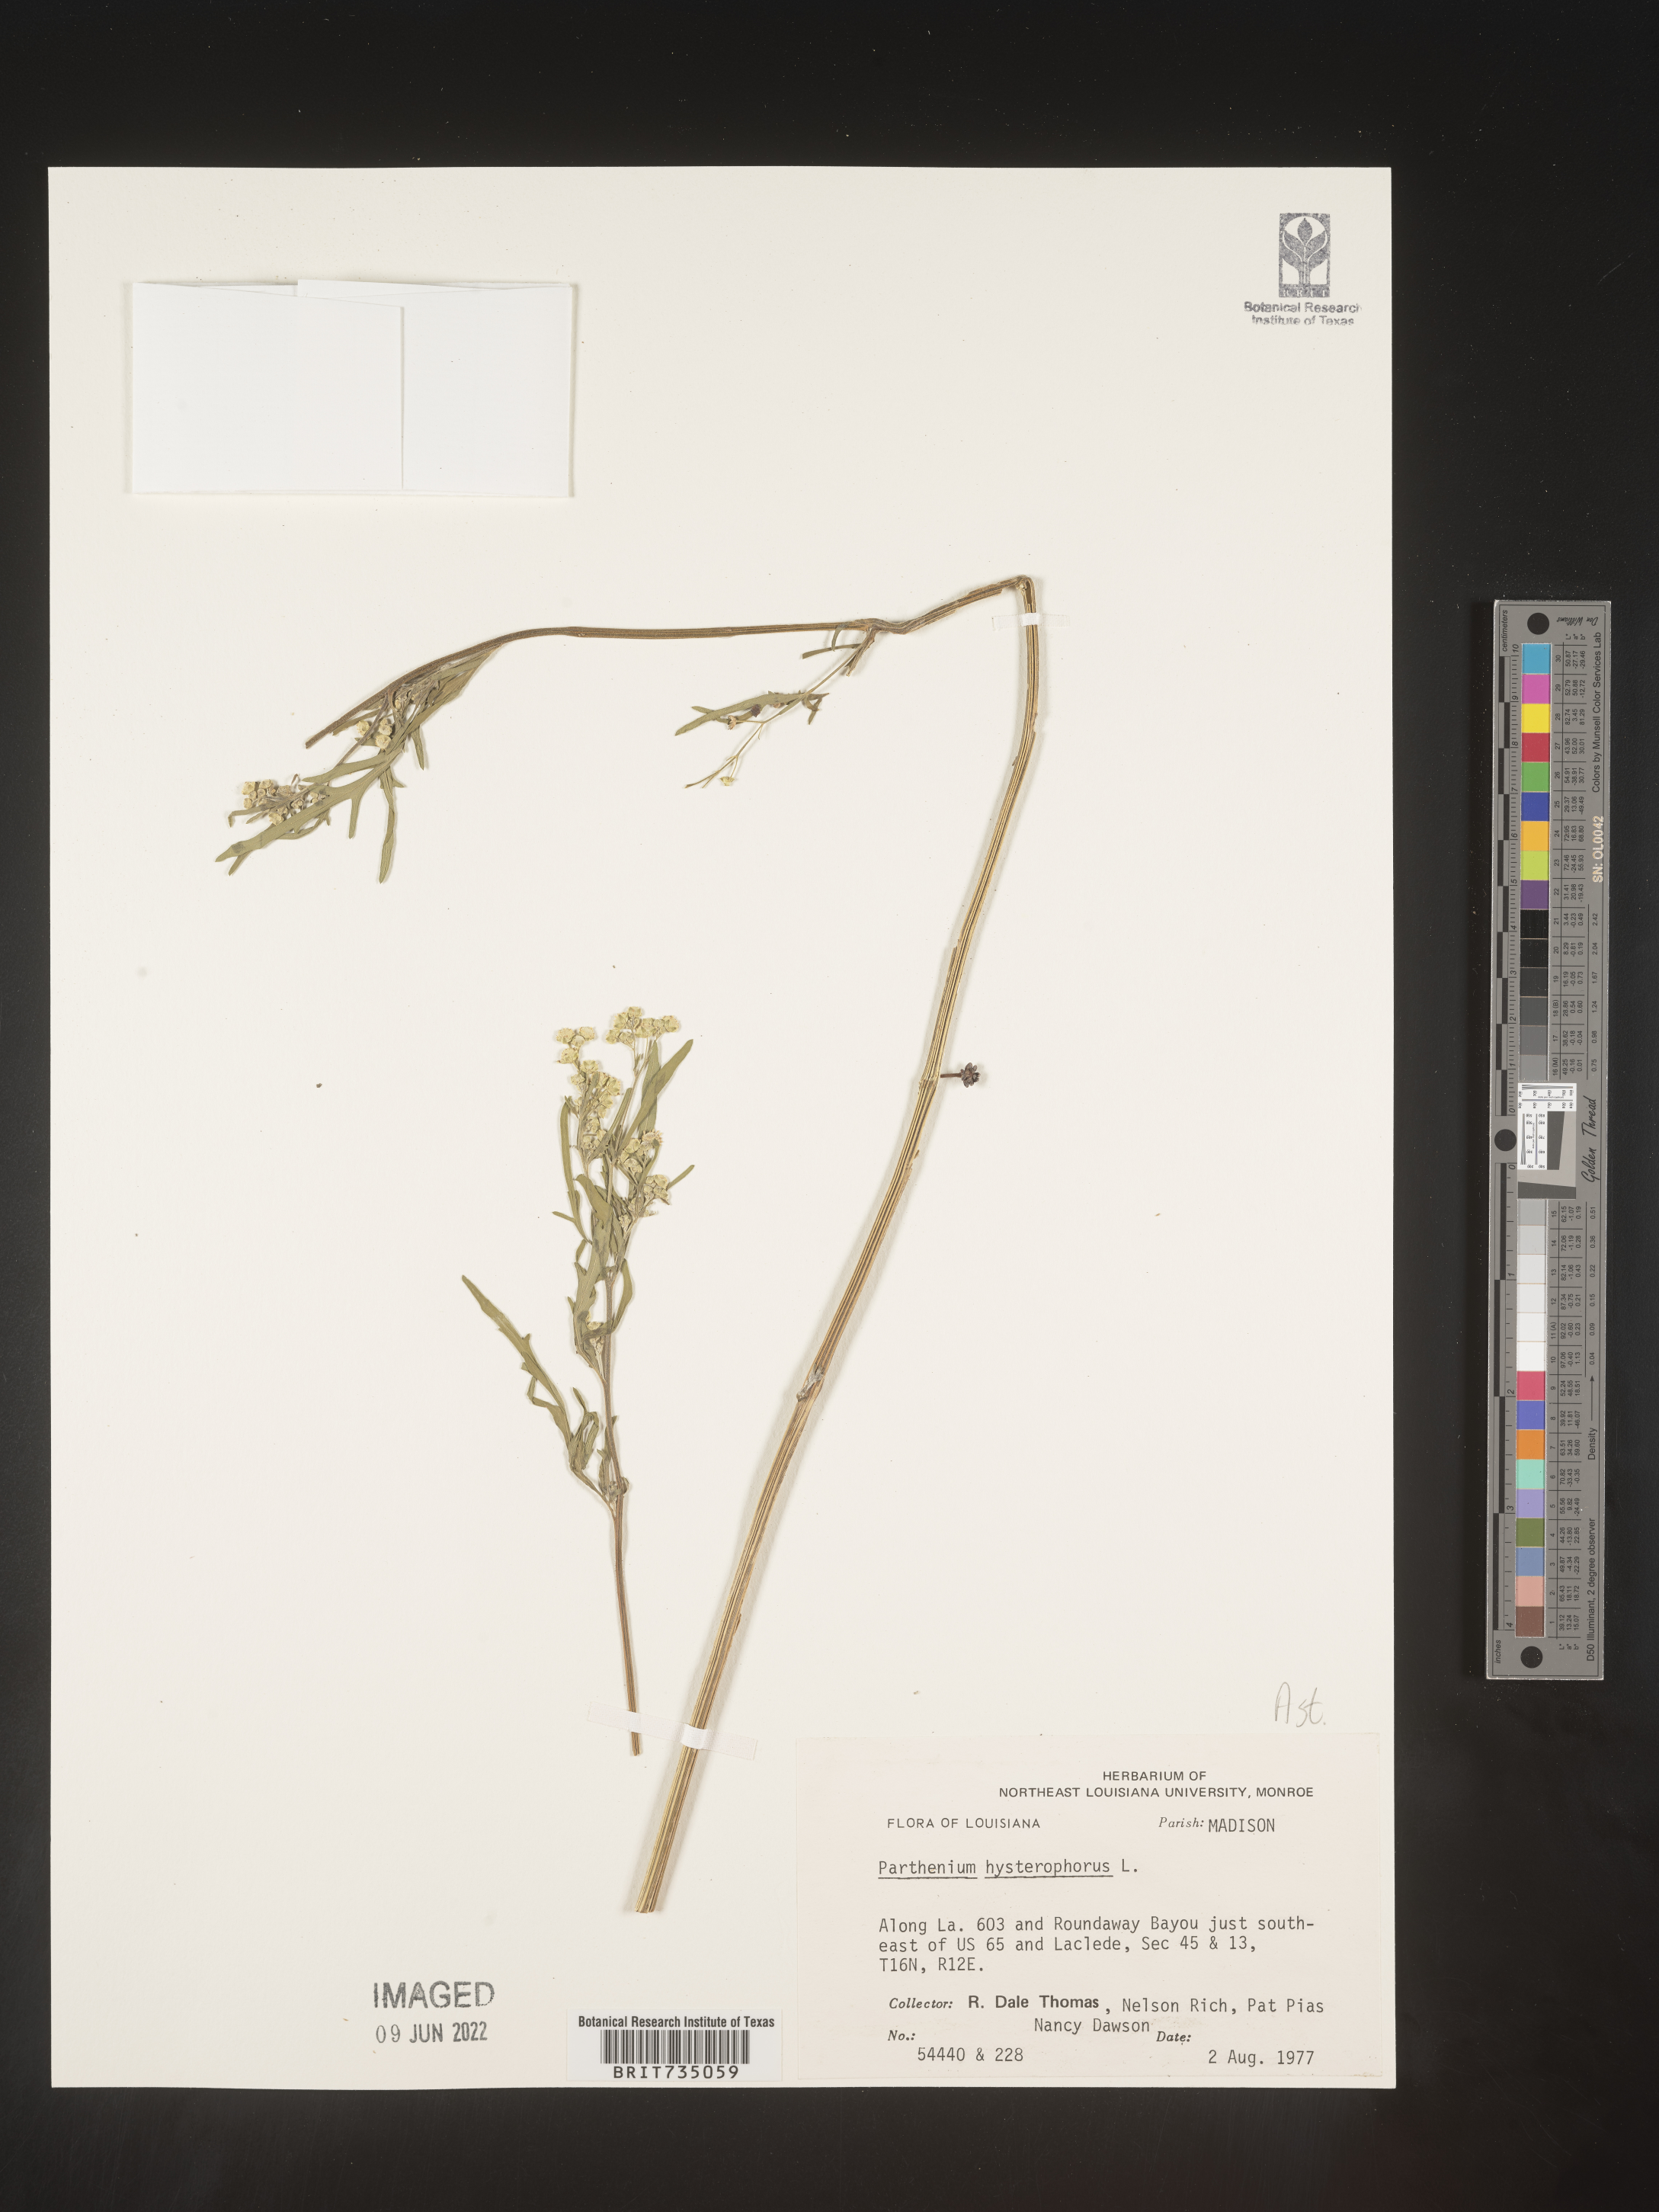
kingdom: Plantae
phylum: Tracheophyta
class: Magnoliopsida
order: Asterales
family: Asteraceae
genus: Parthenium
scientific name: Parthenium hysterophorus
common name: Santa maria feverfew
